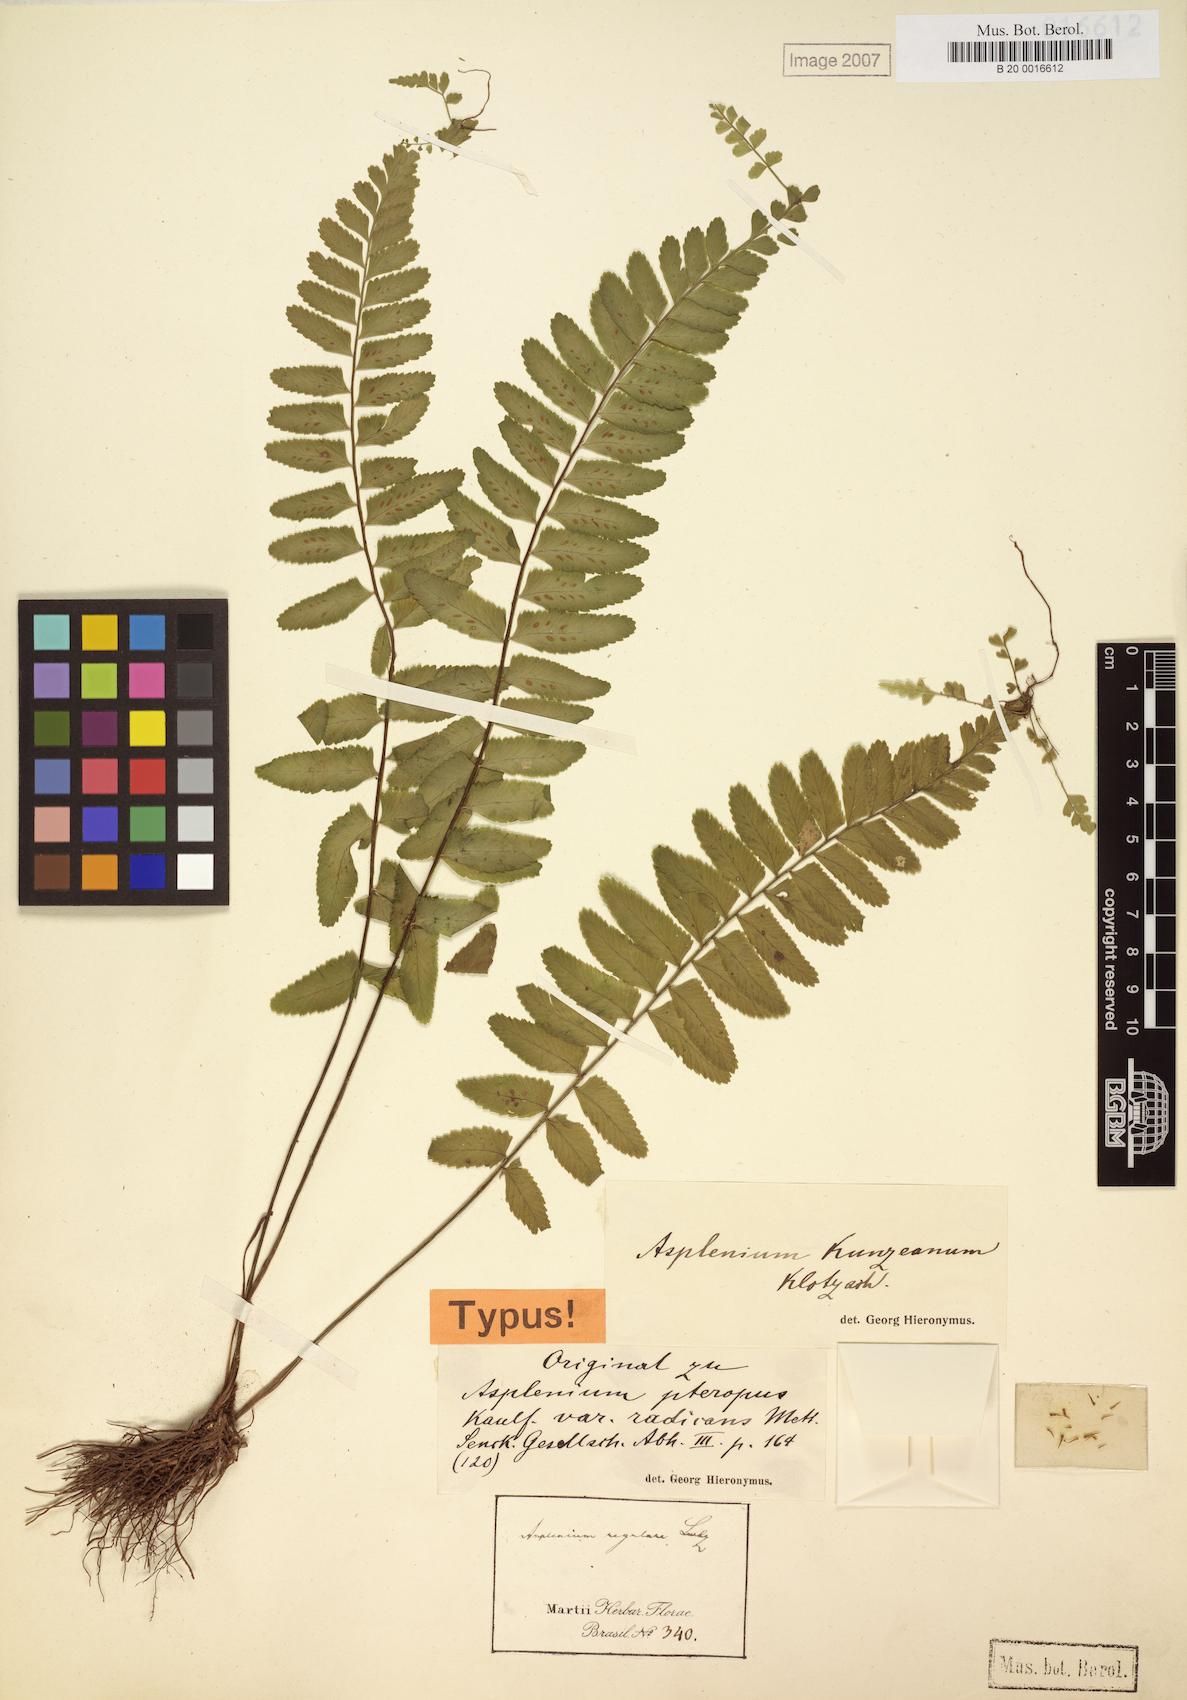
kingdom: Plantae
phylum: Tracheophyta
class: Polypodiopsida
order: Polypodiales
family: Aspleniaceae
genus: Asplenium
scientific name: Asplenium kunzeanum
